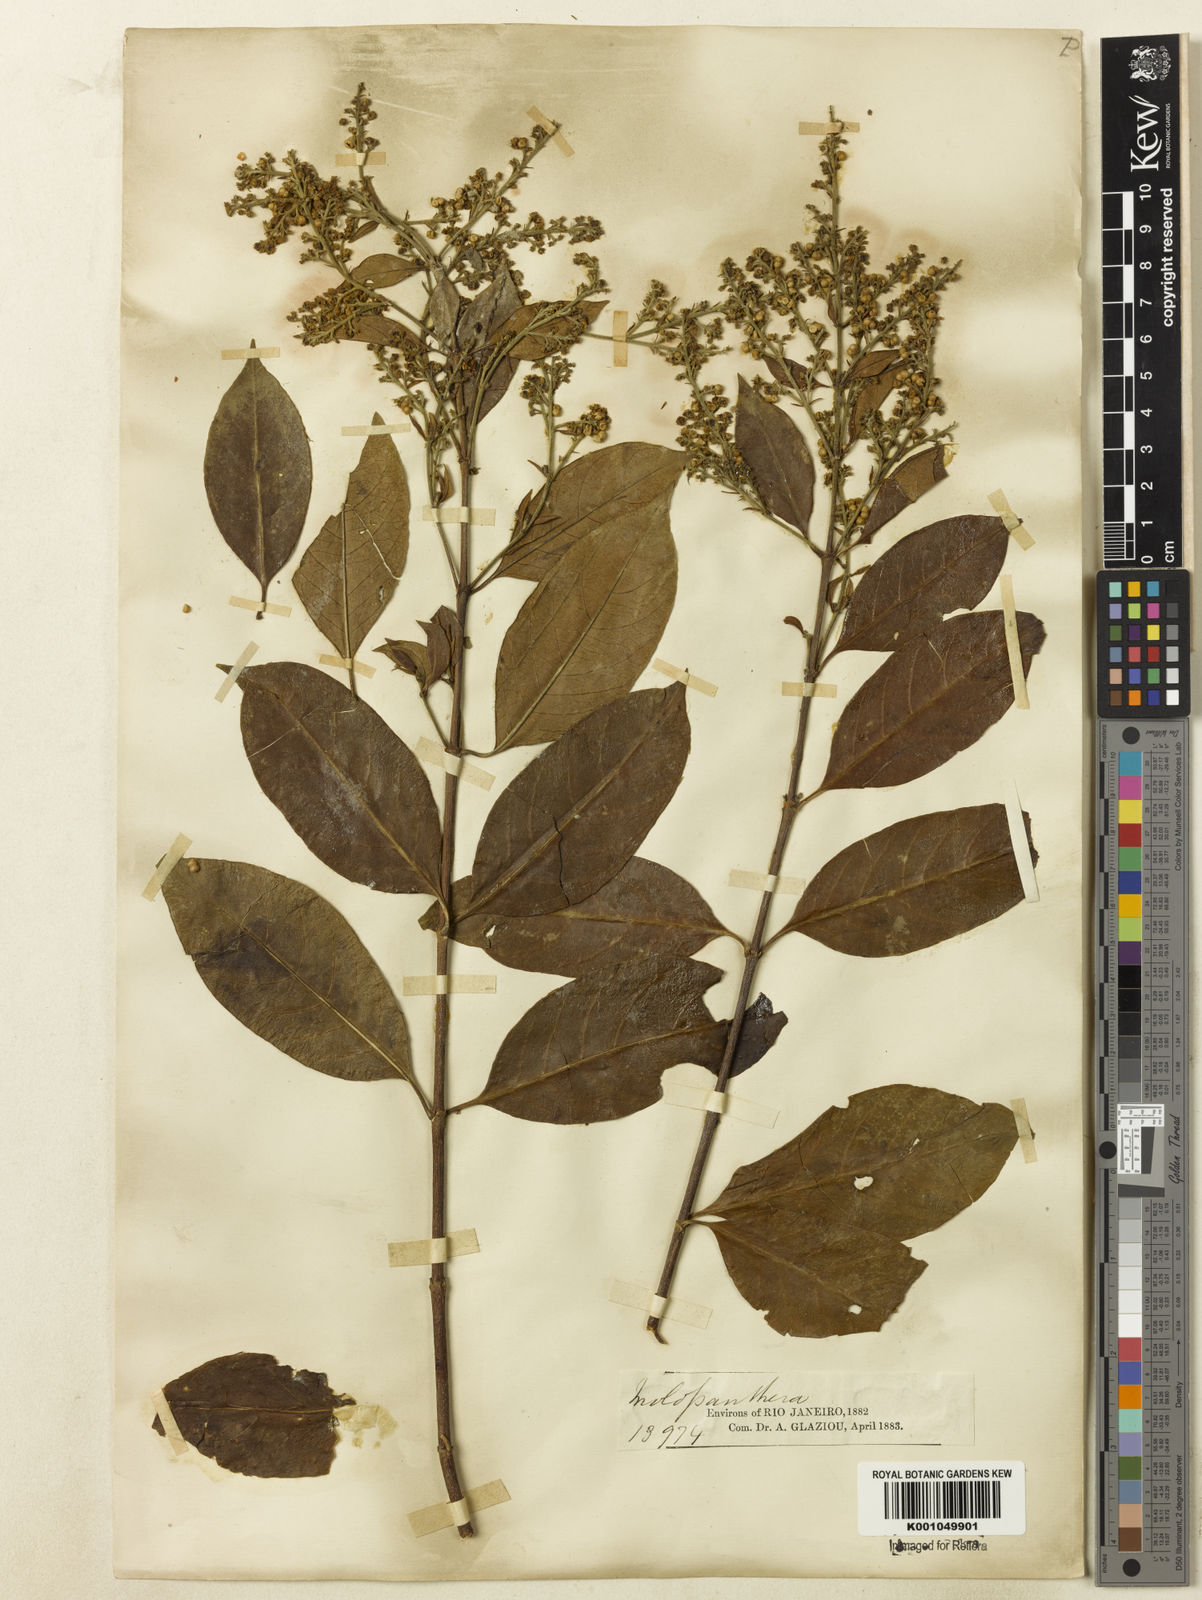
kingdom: Plantae
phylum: Tracheophyta
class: Magnoliopsida
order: Gentianales
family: Rubiaceae
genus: Molopanthera
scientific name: Molopanthera
